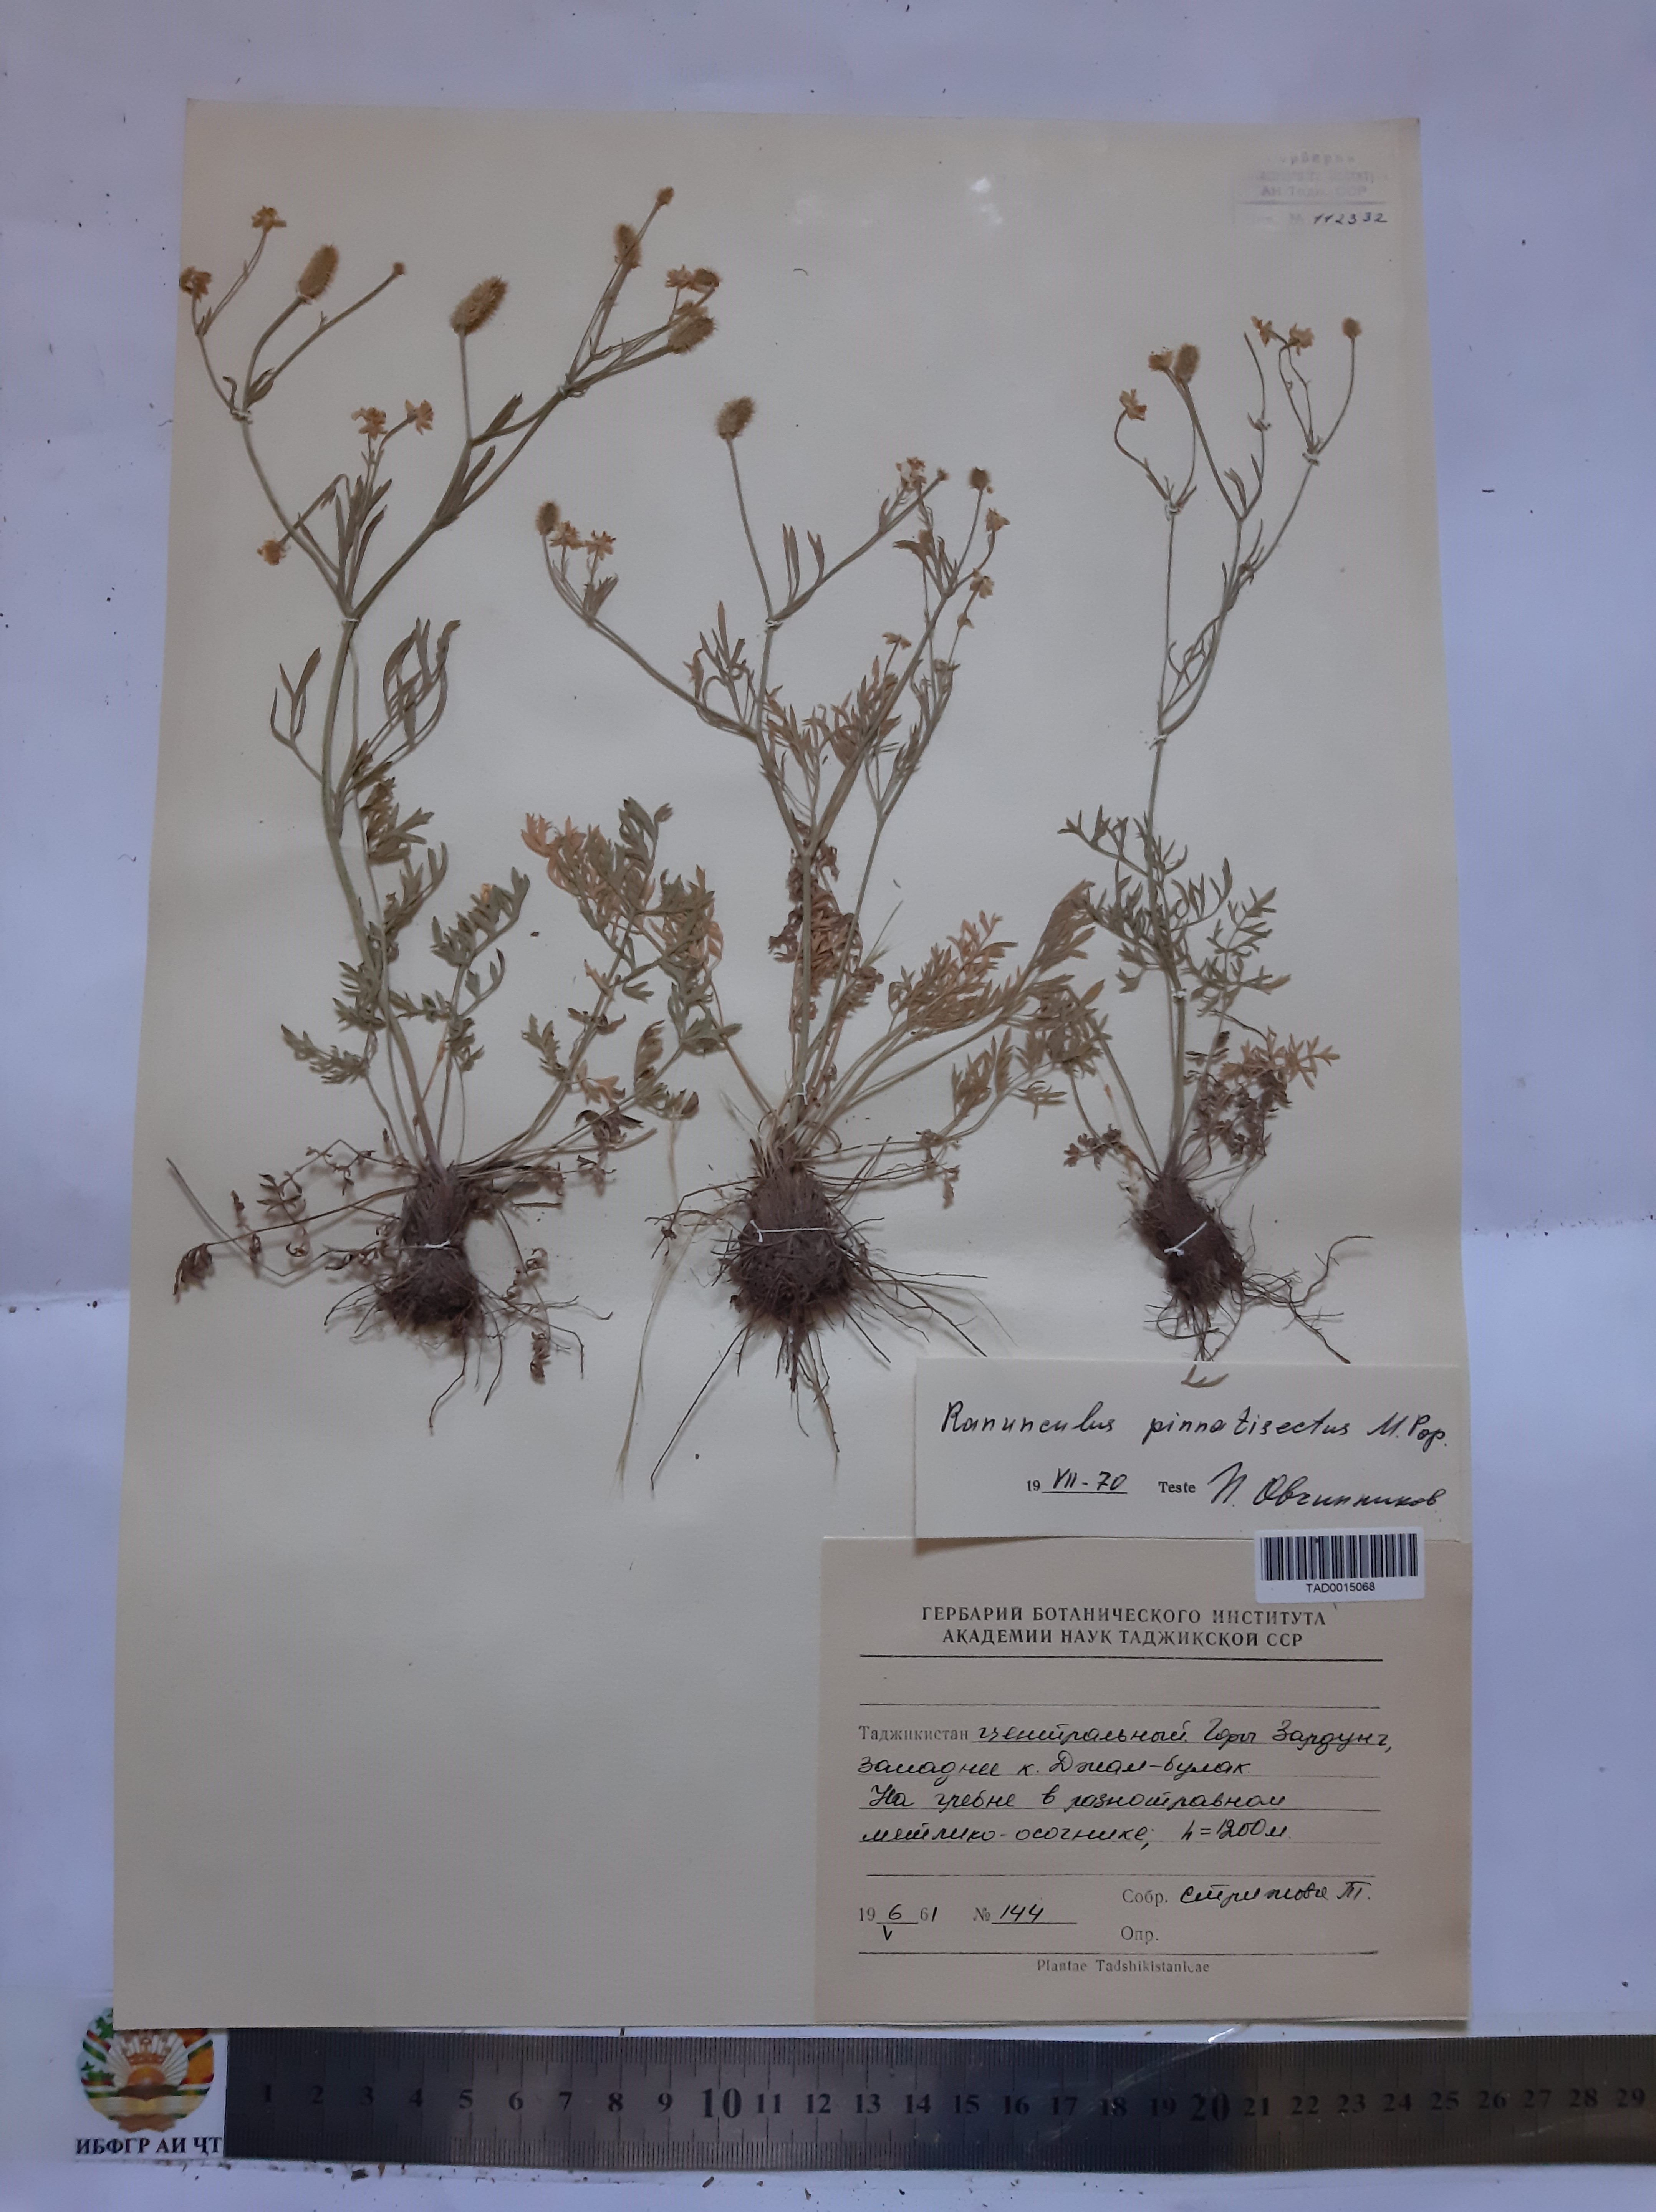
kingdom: Plantae
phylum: Tracheophyta
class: Magnoliopsida
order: Ranunculales
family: Ranunculaceae
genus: Ranunculus
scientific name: Ranunculus pinnatisectus
